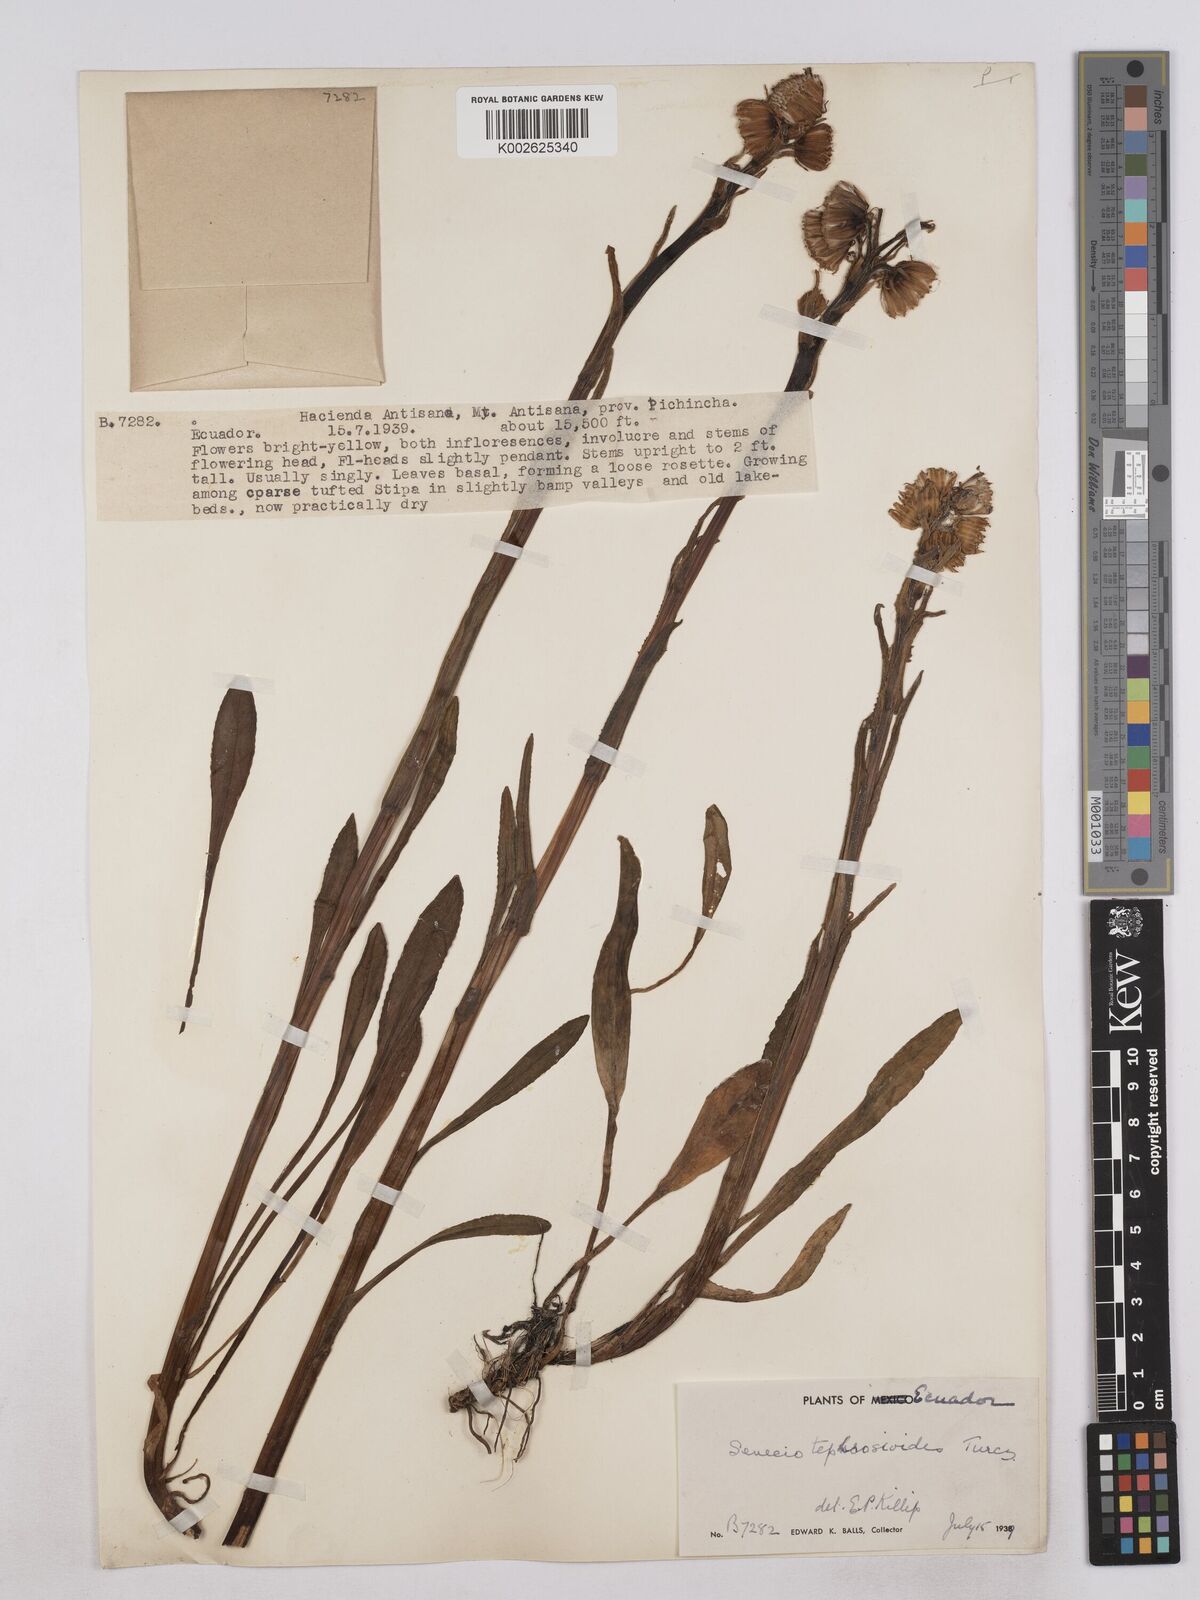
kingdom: Plantae
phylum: Tracheophyta
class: Magnoliopsida
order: Asterales
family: Asteraceae
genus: Senecio
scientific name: Senecio tephrosioides
